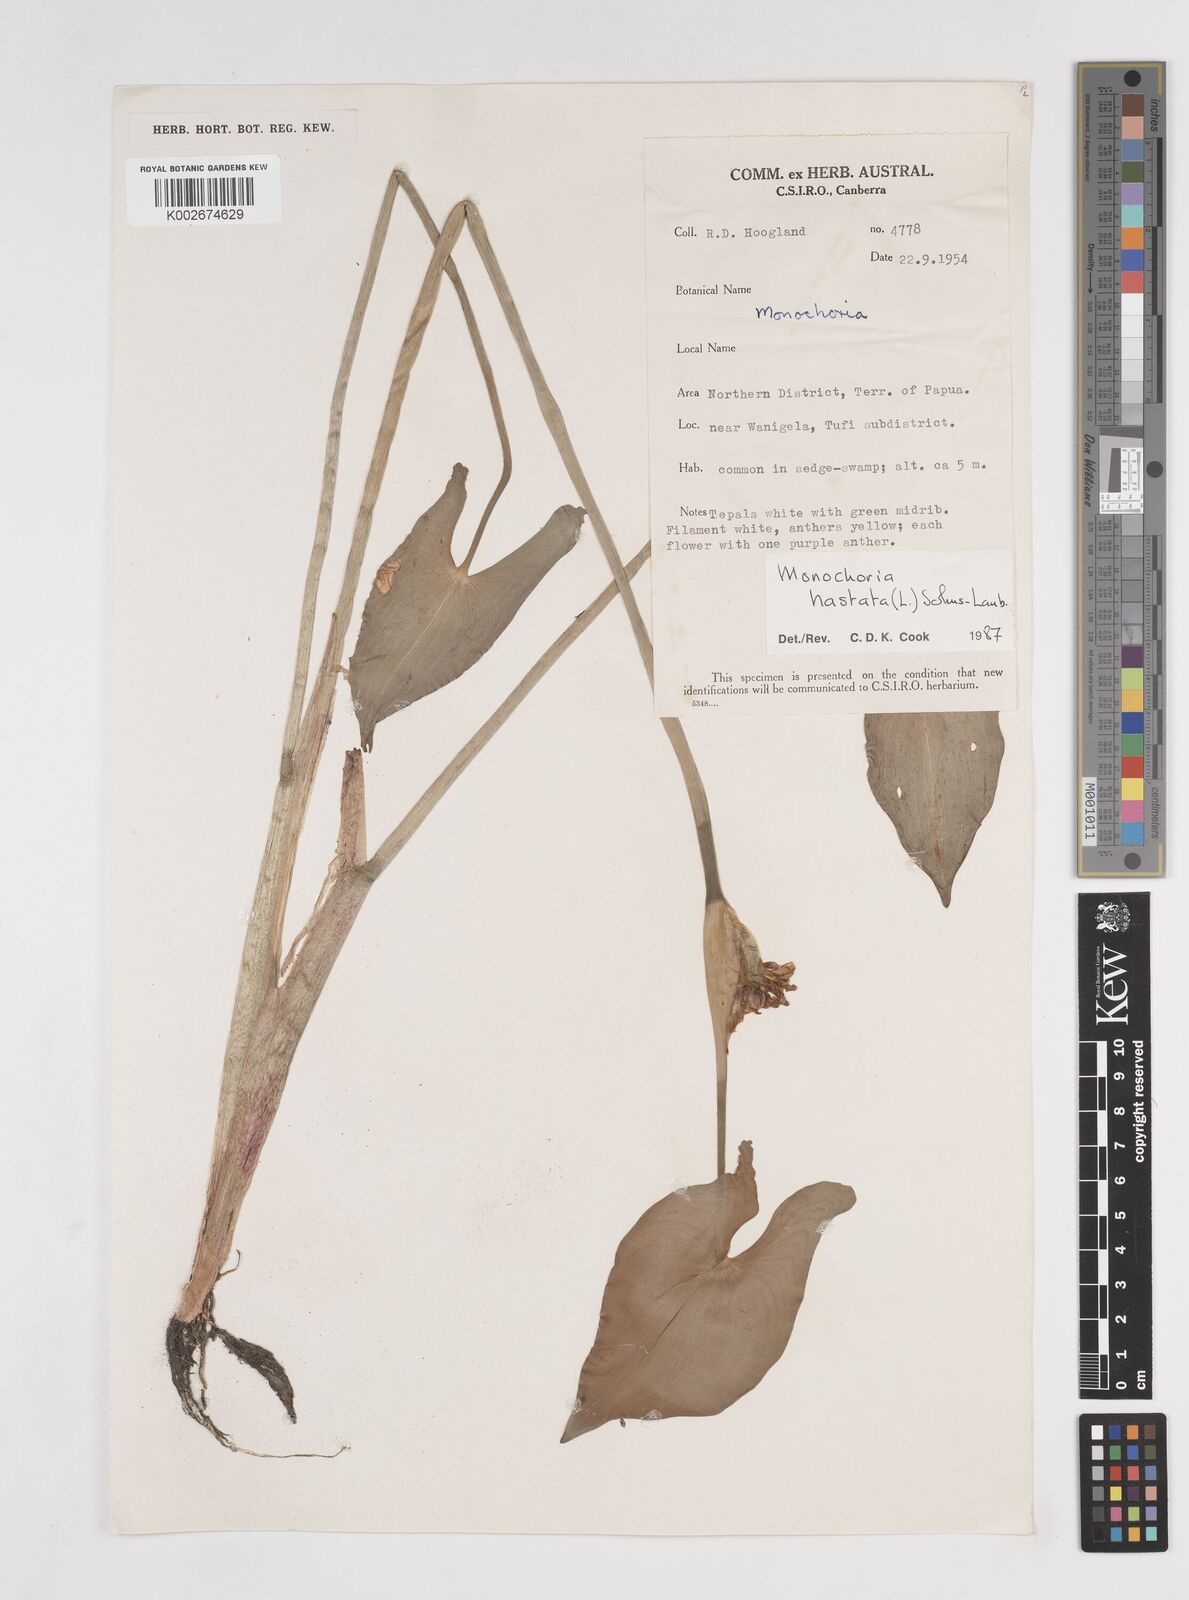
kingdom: Plantae
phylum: Tracheophyta
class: Liliopsida
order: Commelinales
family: Pontederiaceae
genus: Pontederia
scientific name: Pontederia hastata
